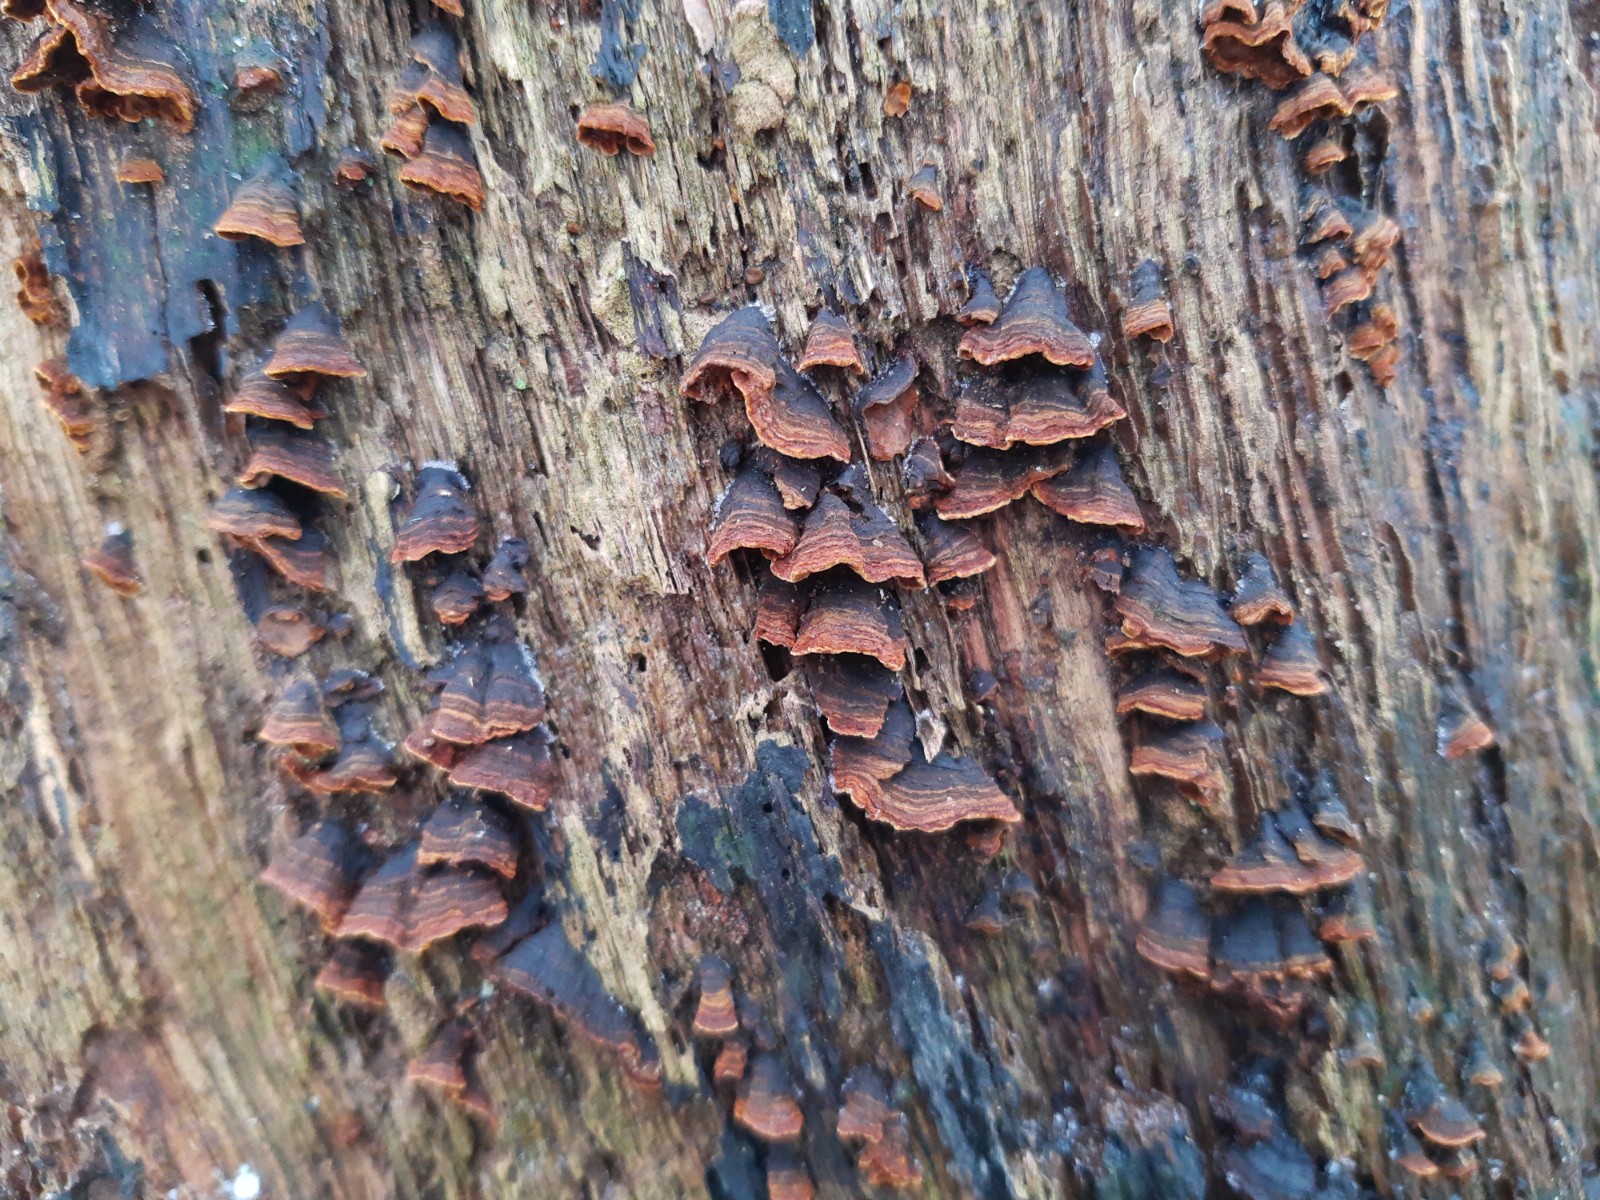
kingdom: Fungi
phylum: Basidiomycota
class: Agaricomycetes
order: Hymenochaetales
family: Hymenochaetaceae
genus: Hymenochaete
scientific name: Hymenochaete rubiginosa
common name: stiv ruslædersvamp
